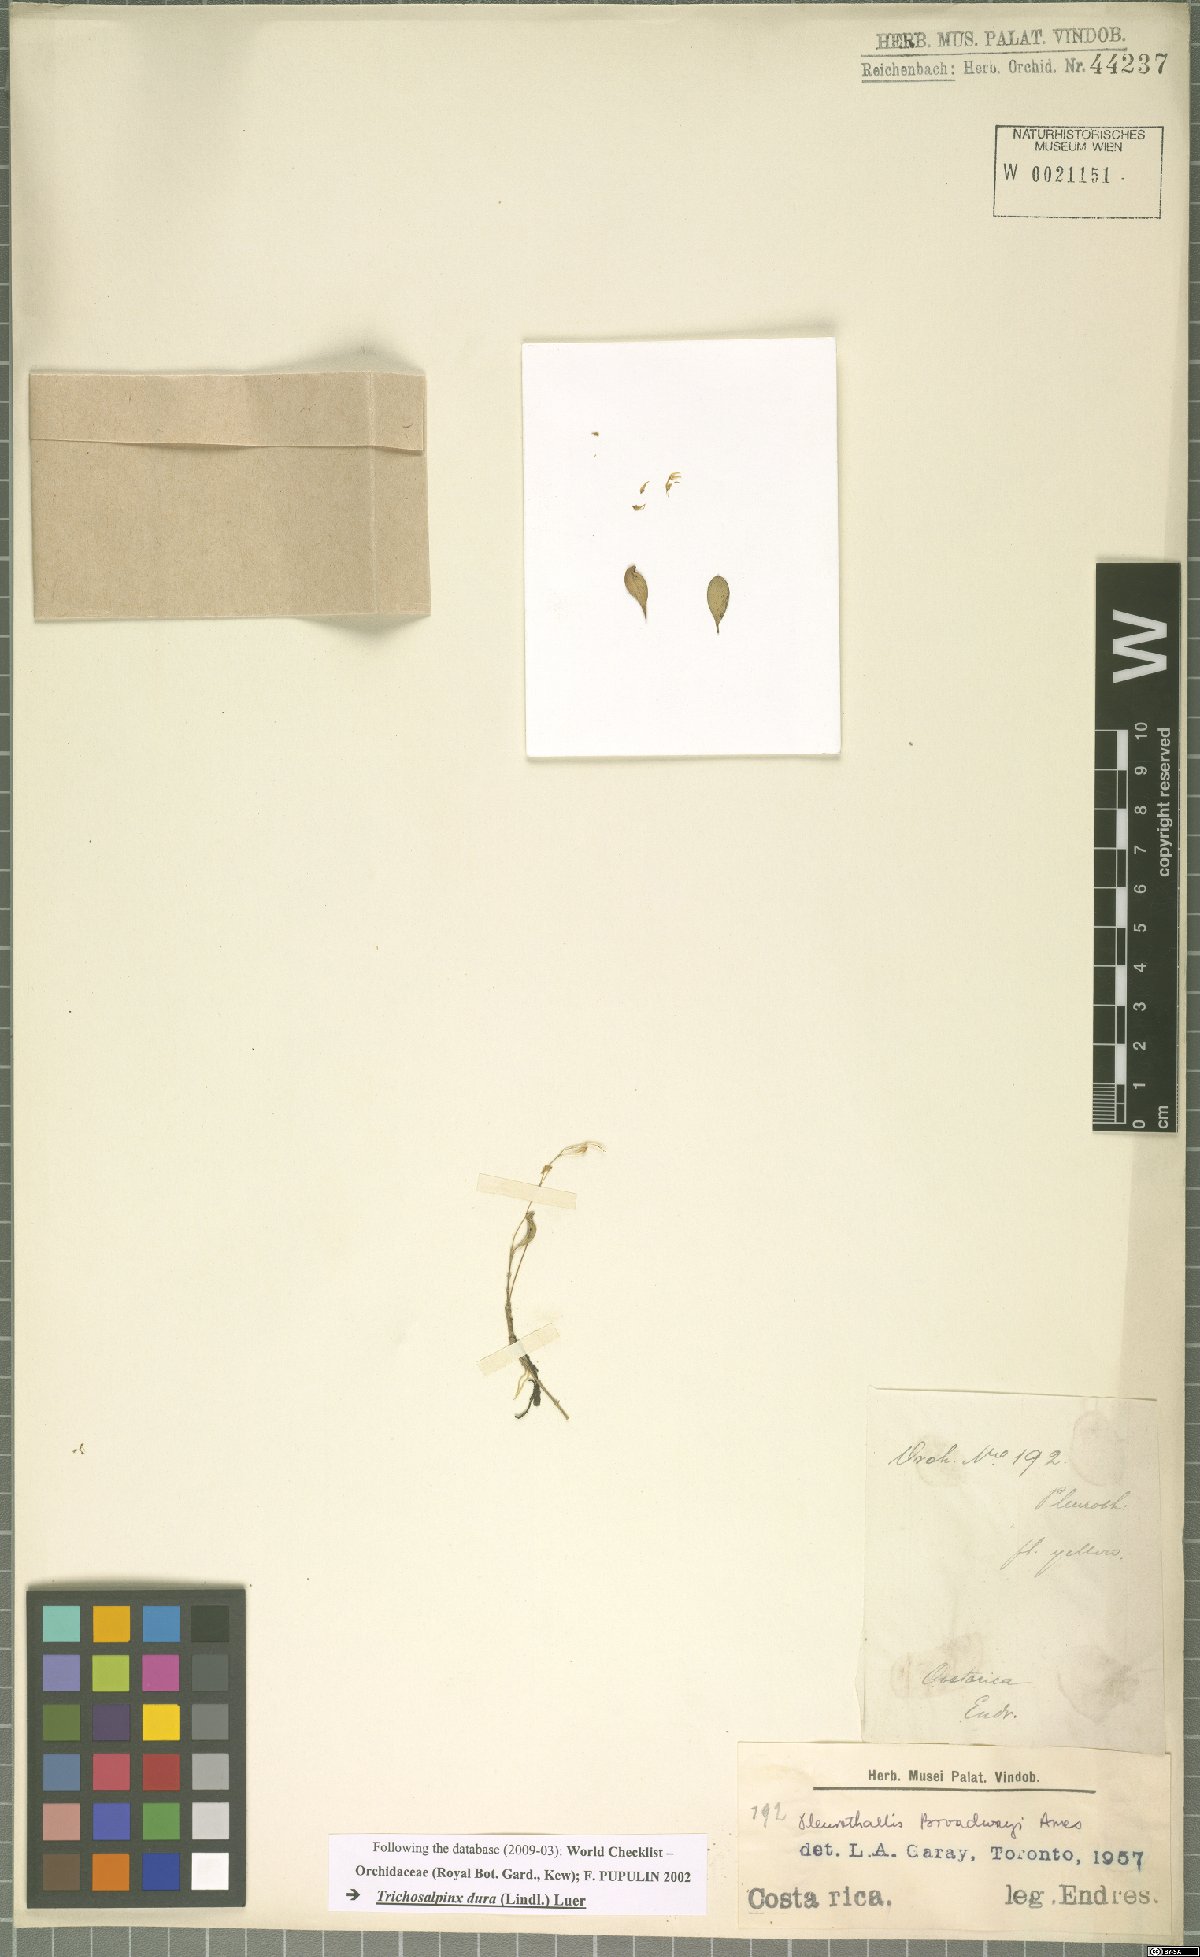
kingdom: Plantae
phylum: Tracheophyta
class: Liliopsida
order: Asparagales
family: Orchidaceae
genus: Trichosalpinx
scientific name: Trichosalpinx dura
